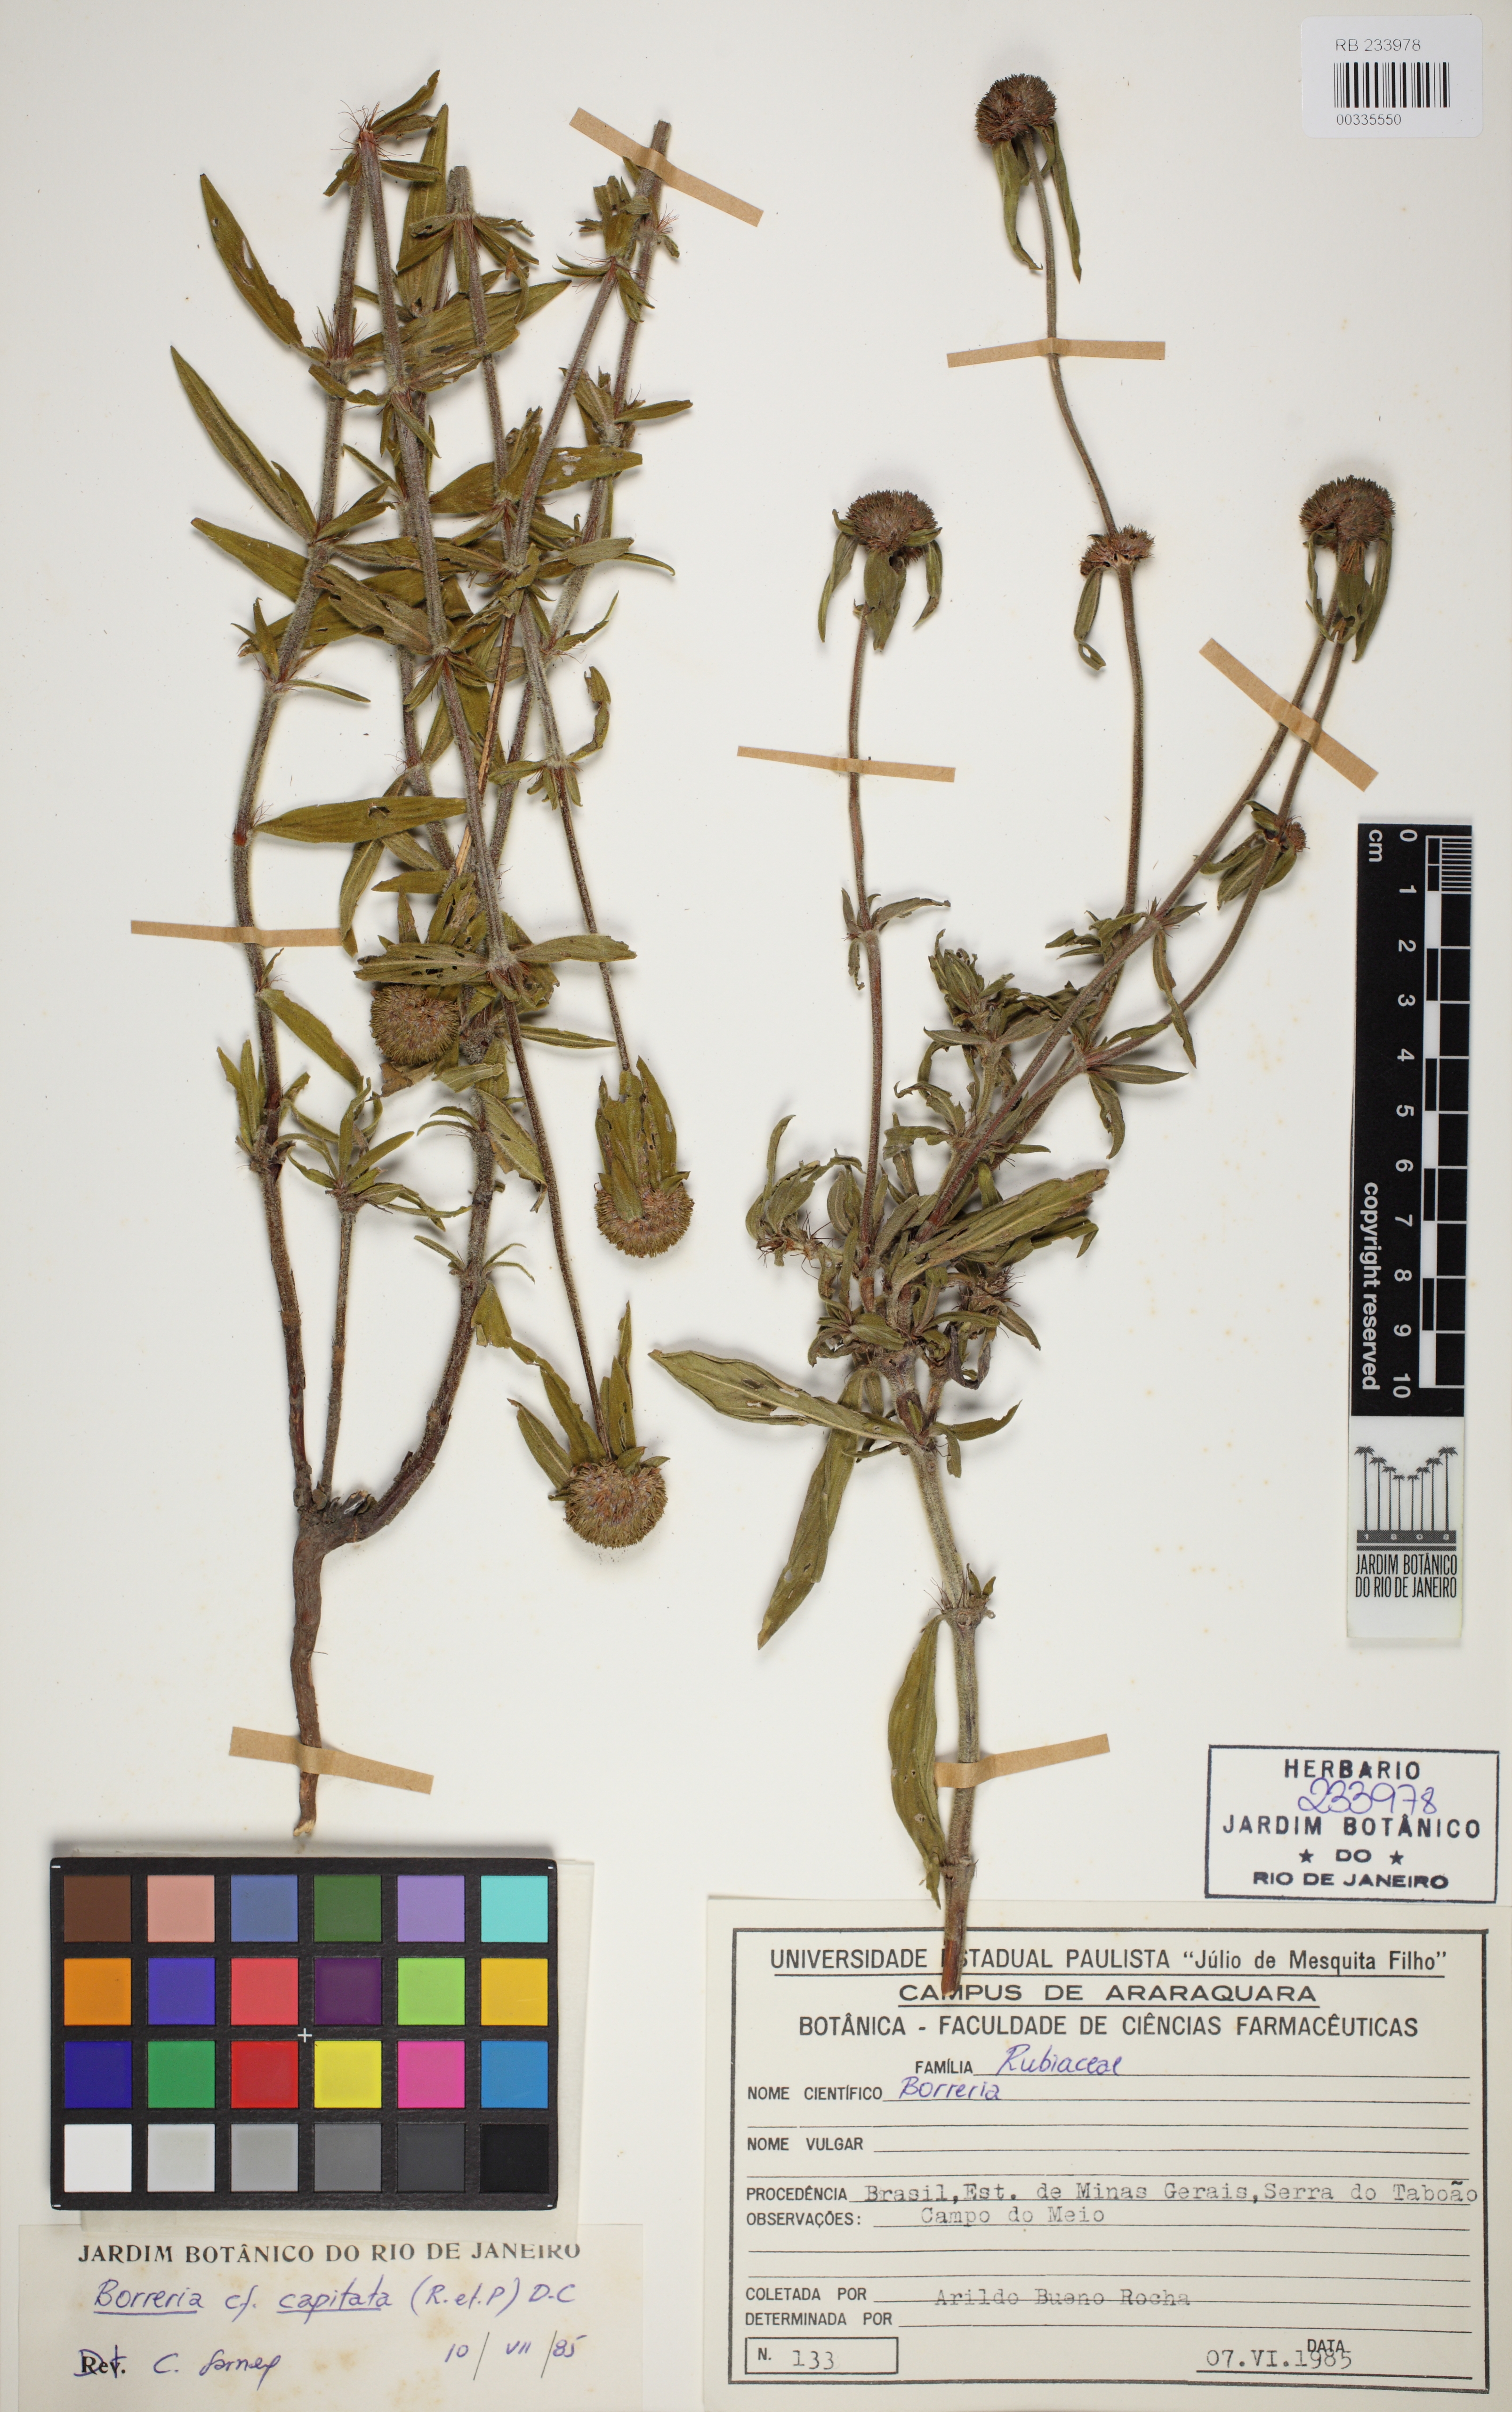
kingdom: Plantae
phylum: Tracheophyta
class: Magnoliopsida
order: Gentianales
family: Rubiaceae
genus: Spermacoce
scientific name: Spermacoce capitata
